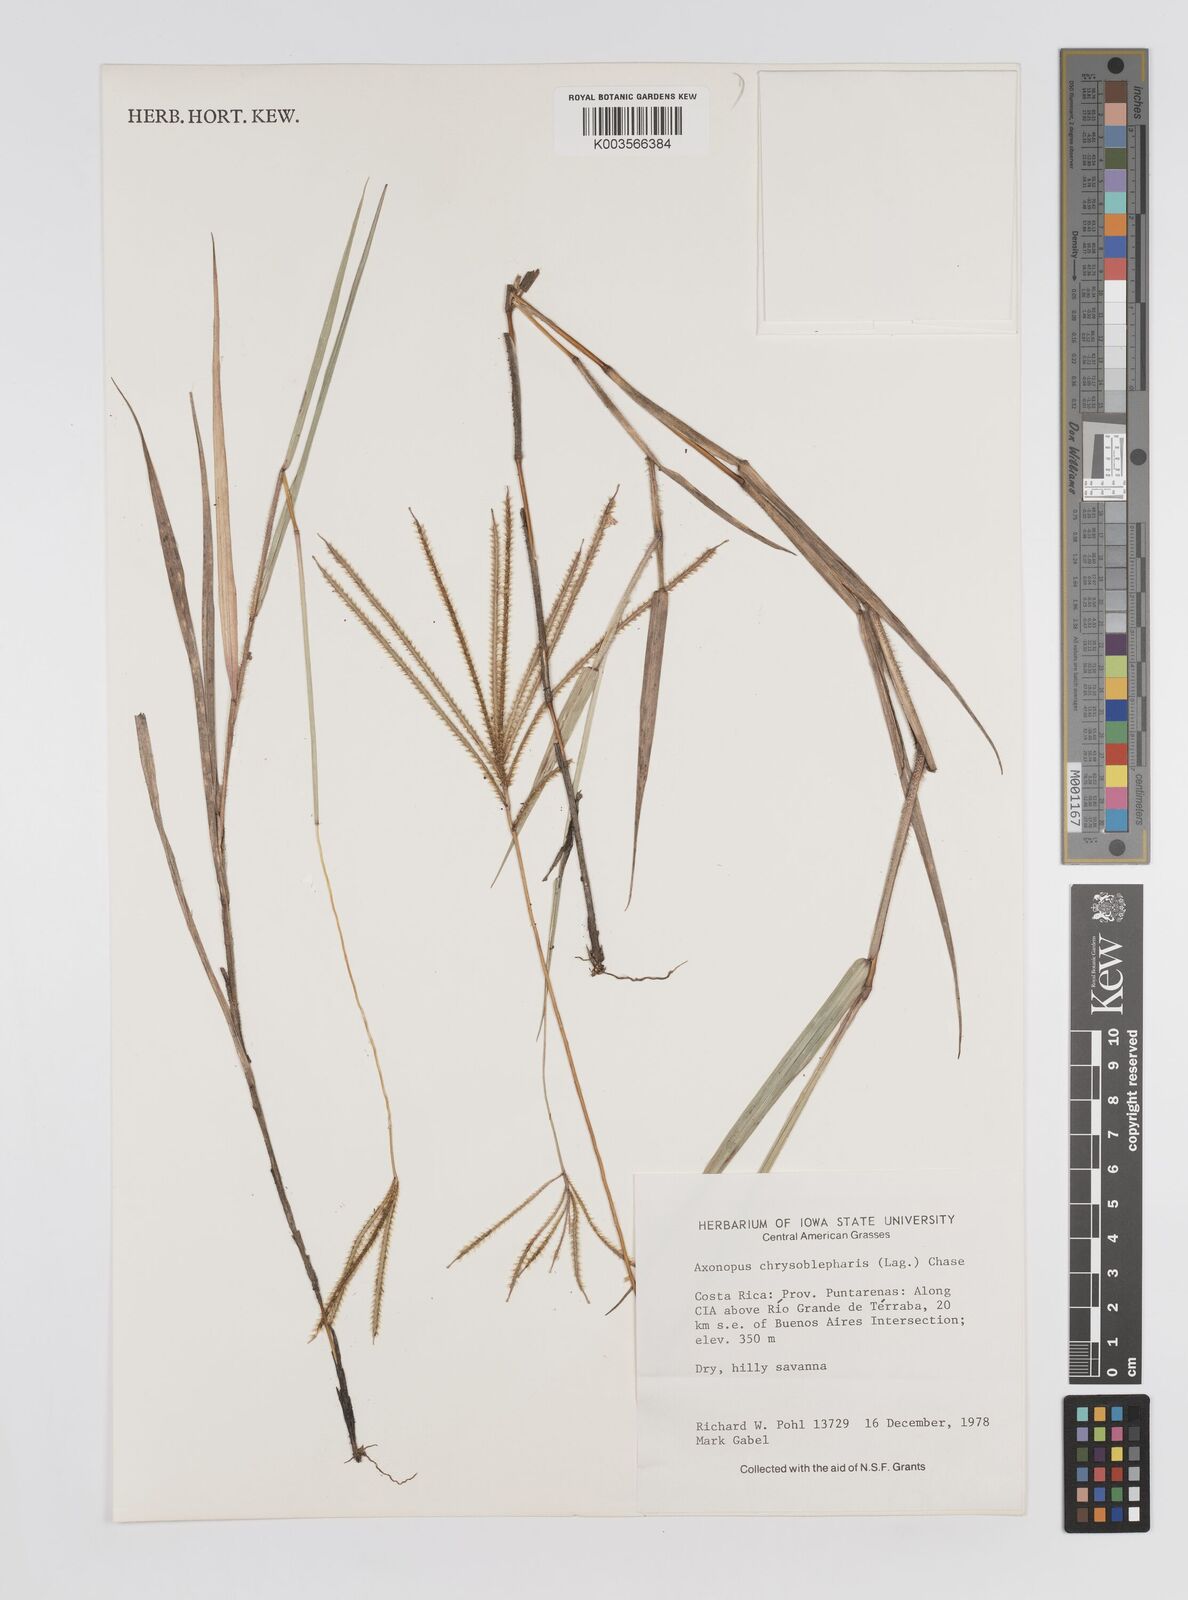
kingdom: Plantae
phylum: Tracheophyta
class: Liliopsida
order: Poales
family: Poaceae
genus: Axonopus
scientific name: Axonopus chrysoblepharis
